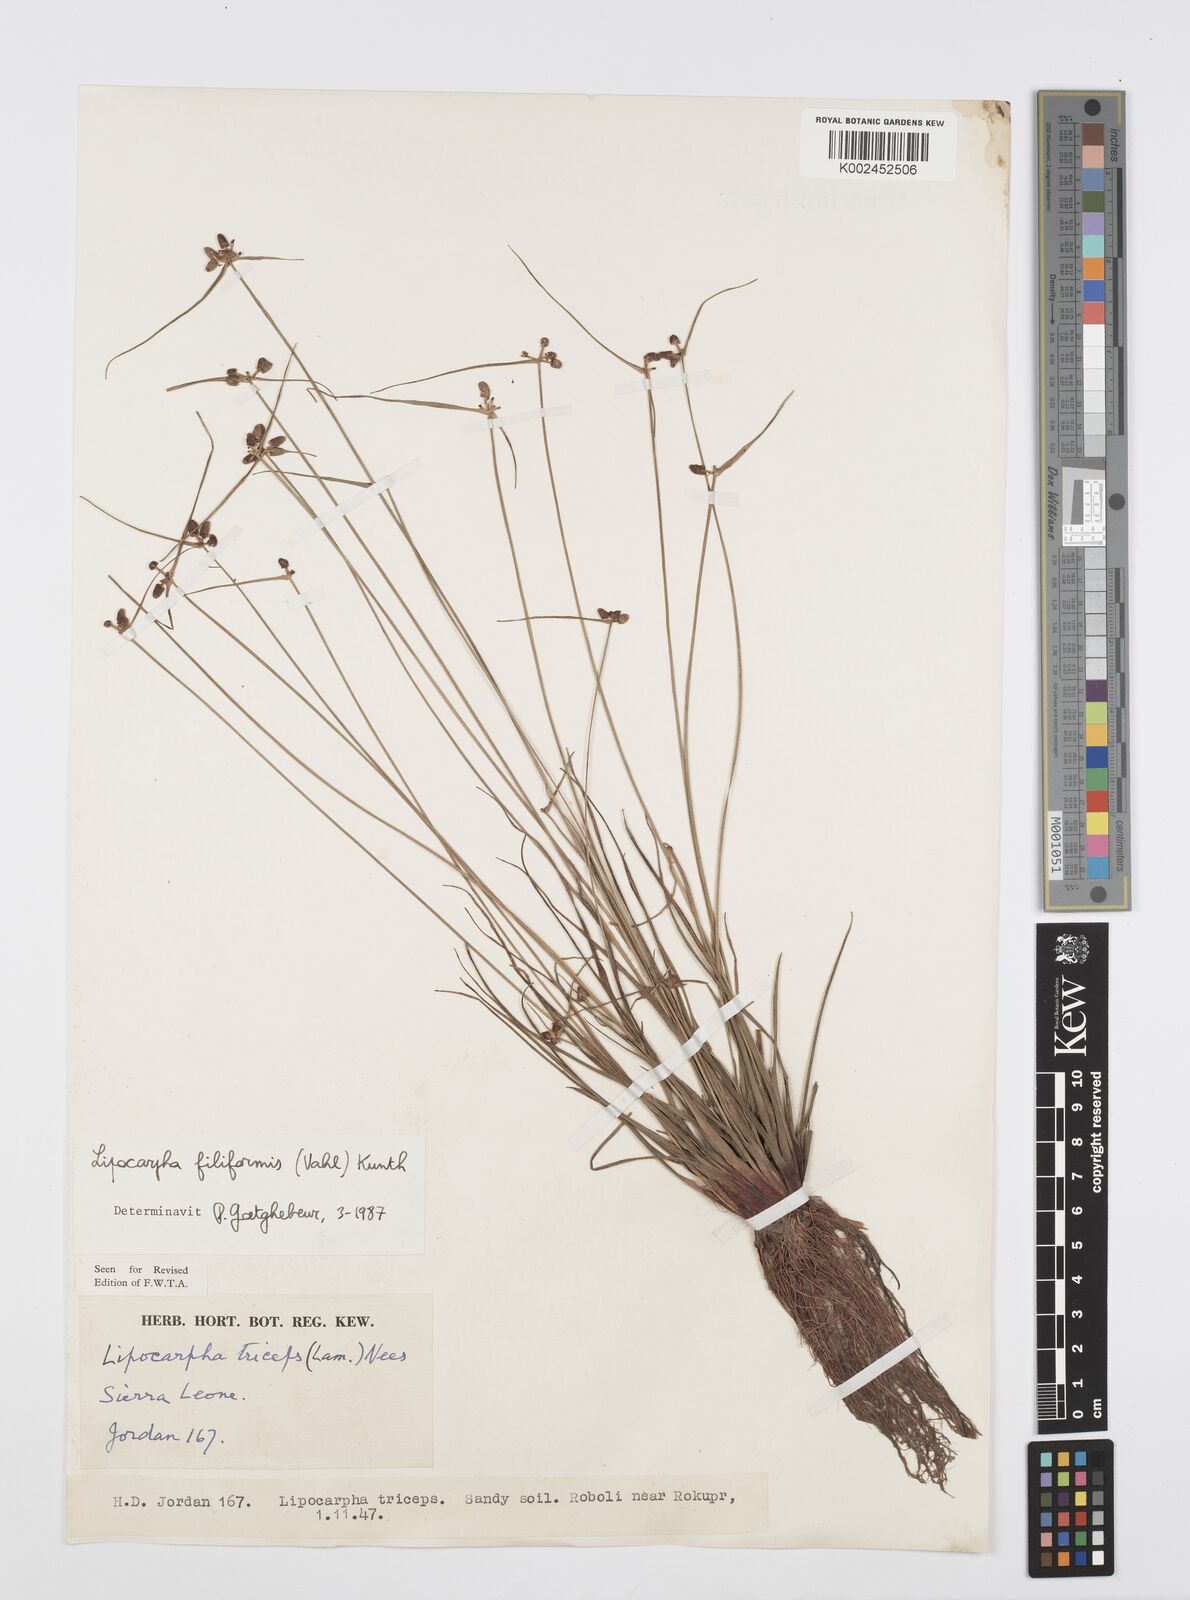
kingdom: Plantae
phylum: Tracheophyta
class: Liliopsida
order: Poales
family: Cyperaceae
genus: Cyperus
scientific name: Cyperus filiformis
